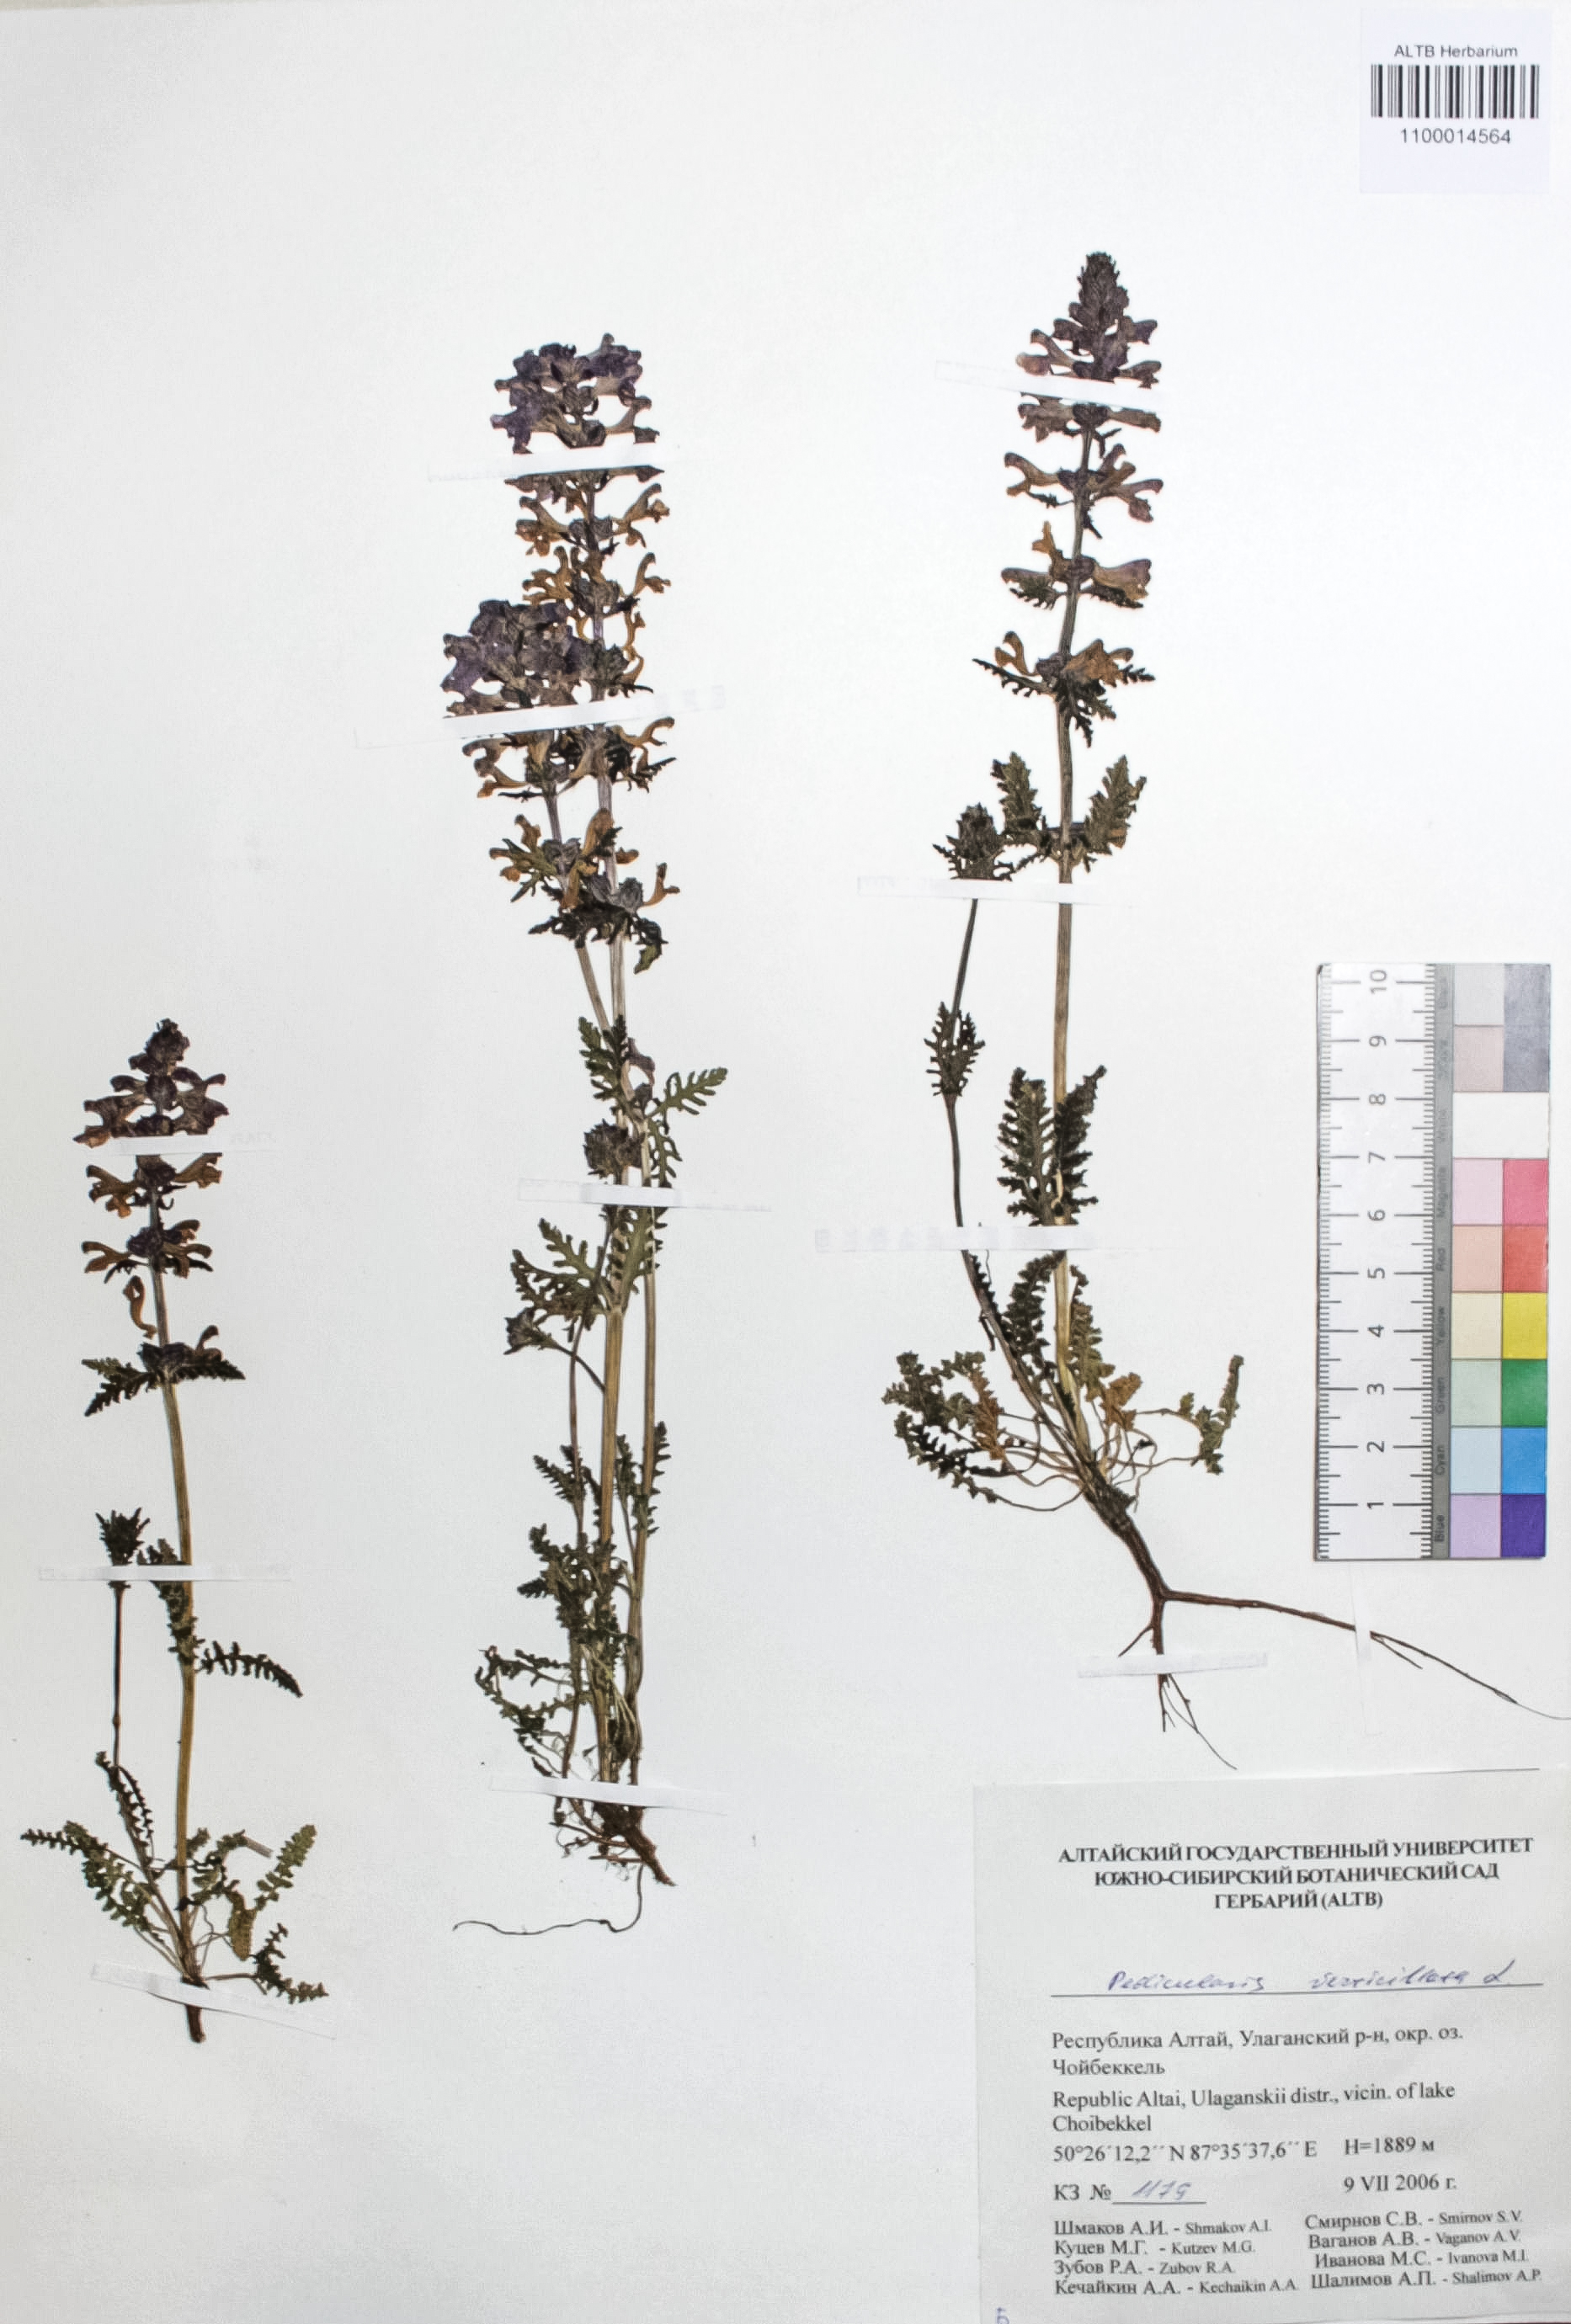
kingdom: Plantae
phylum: Tracheophyta
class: Magnoliopsida
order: Lamiales
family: Orobanchaceae
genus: Pedicularis
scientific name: Pedicularis verticillata
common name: Whorled lousewort
